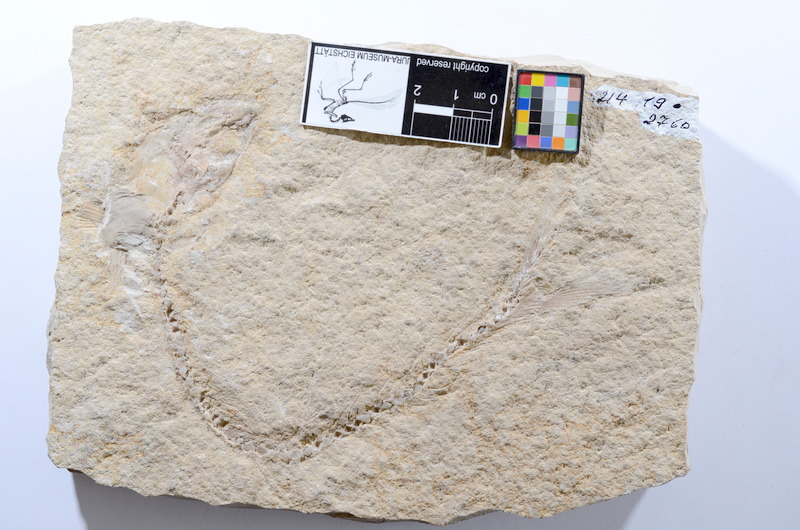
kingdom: Animalia
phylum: Chordata
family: Allothrissopidae
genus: Allothrissops
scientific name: Allothrissops
